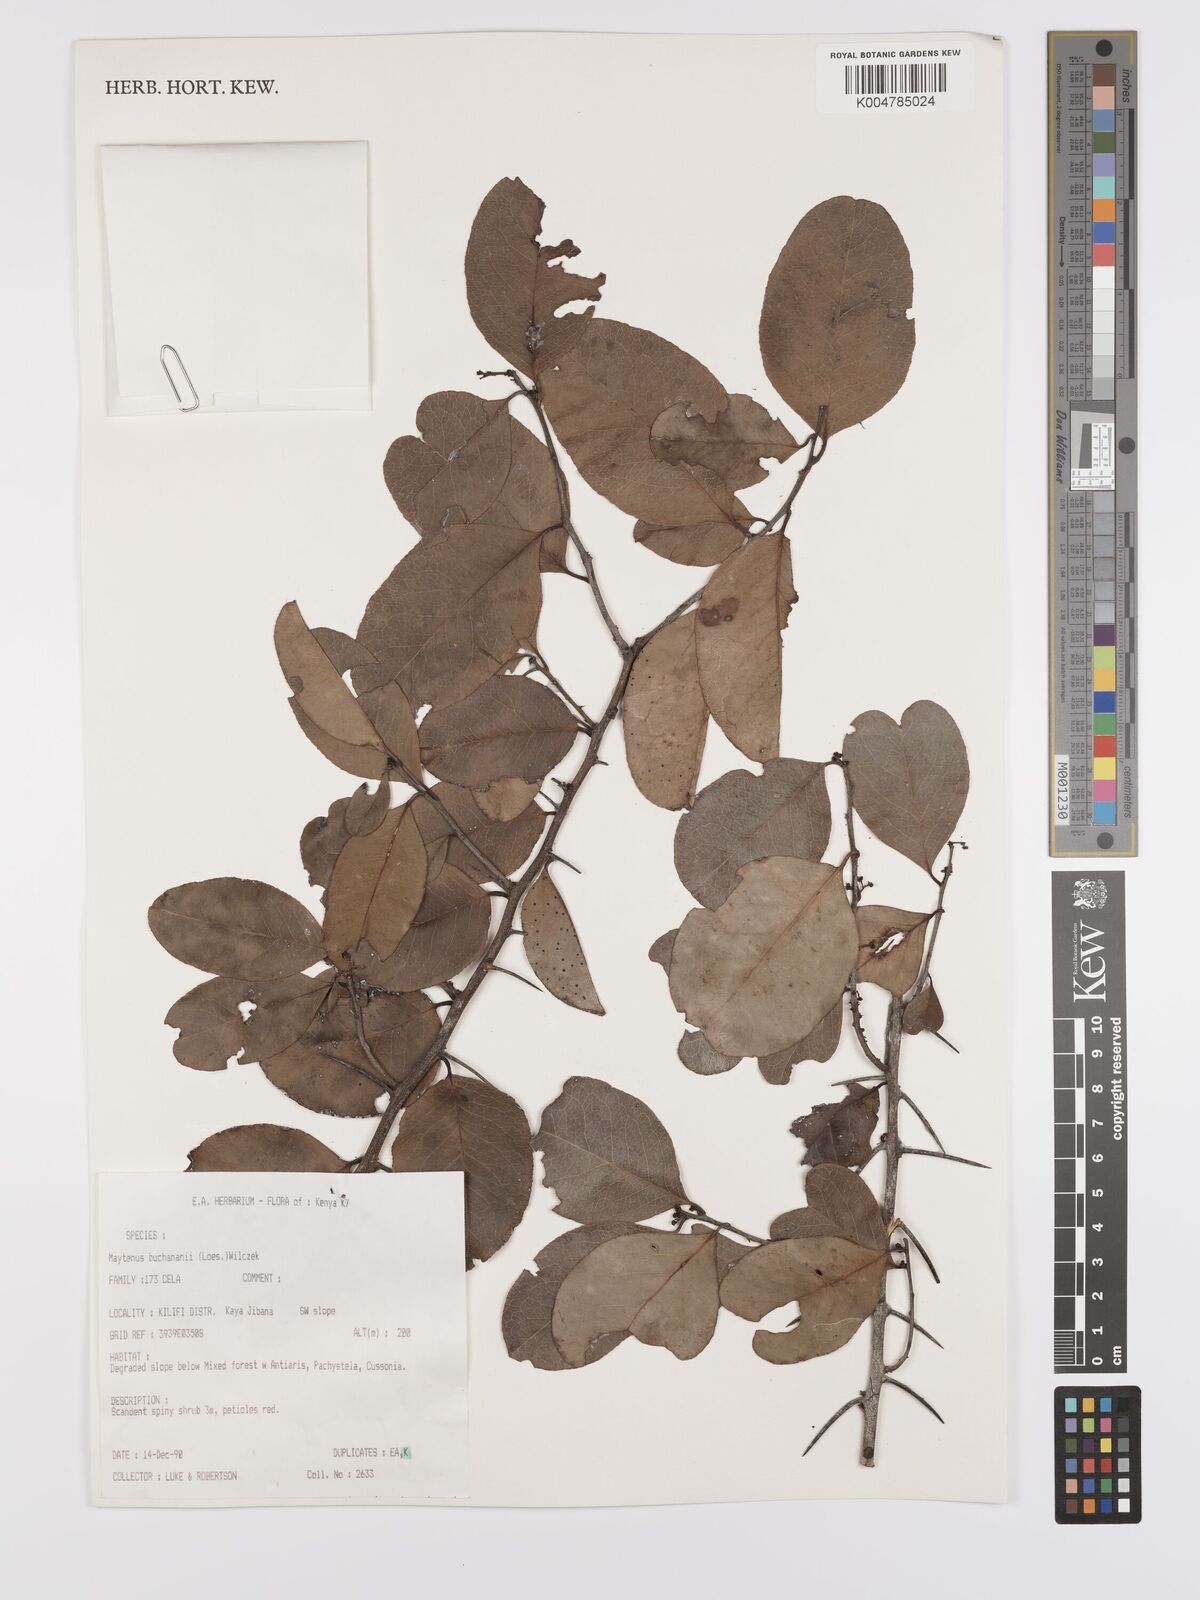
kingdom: Plantae
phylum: Tracheophyta
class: Magnoliopsida
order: Celastrales
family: Celastraceae
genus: Gymnosporia
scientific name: Gymnosporia buchananii
